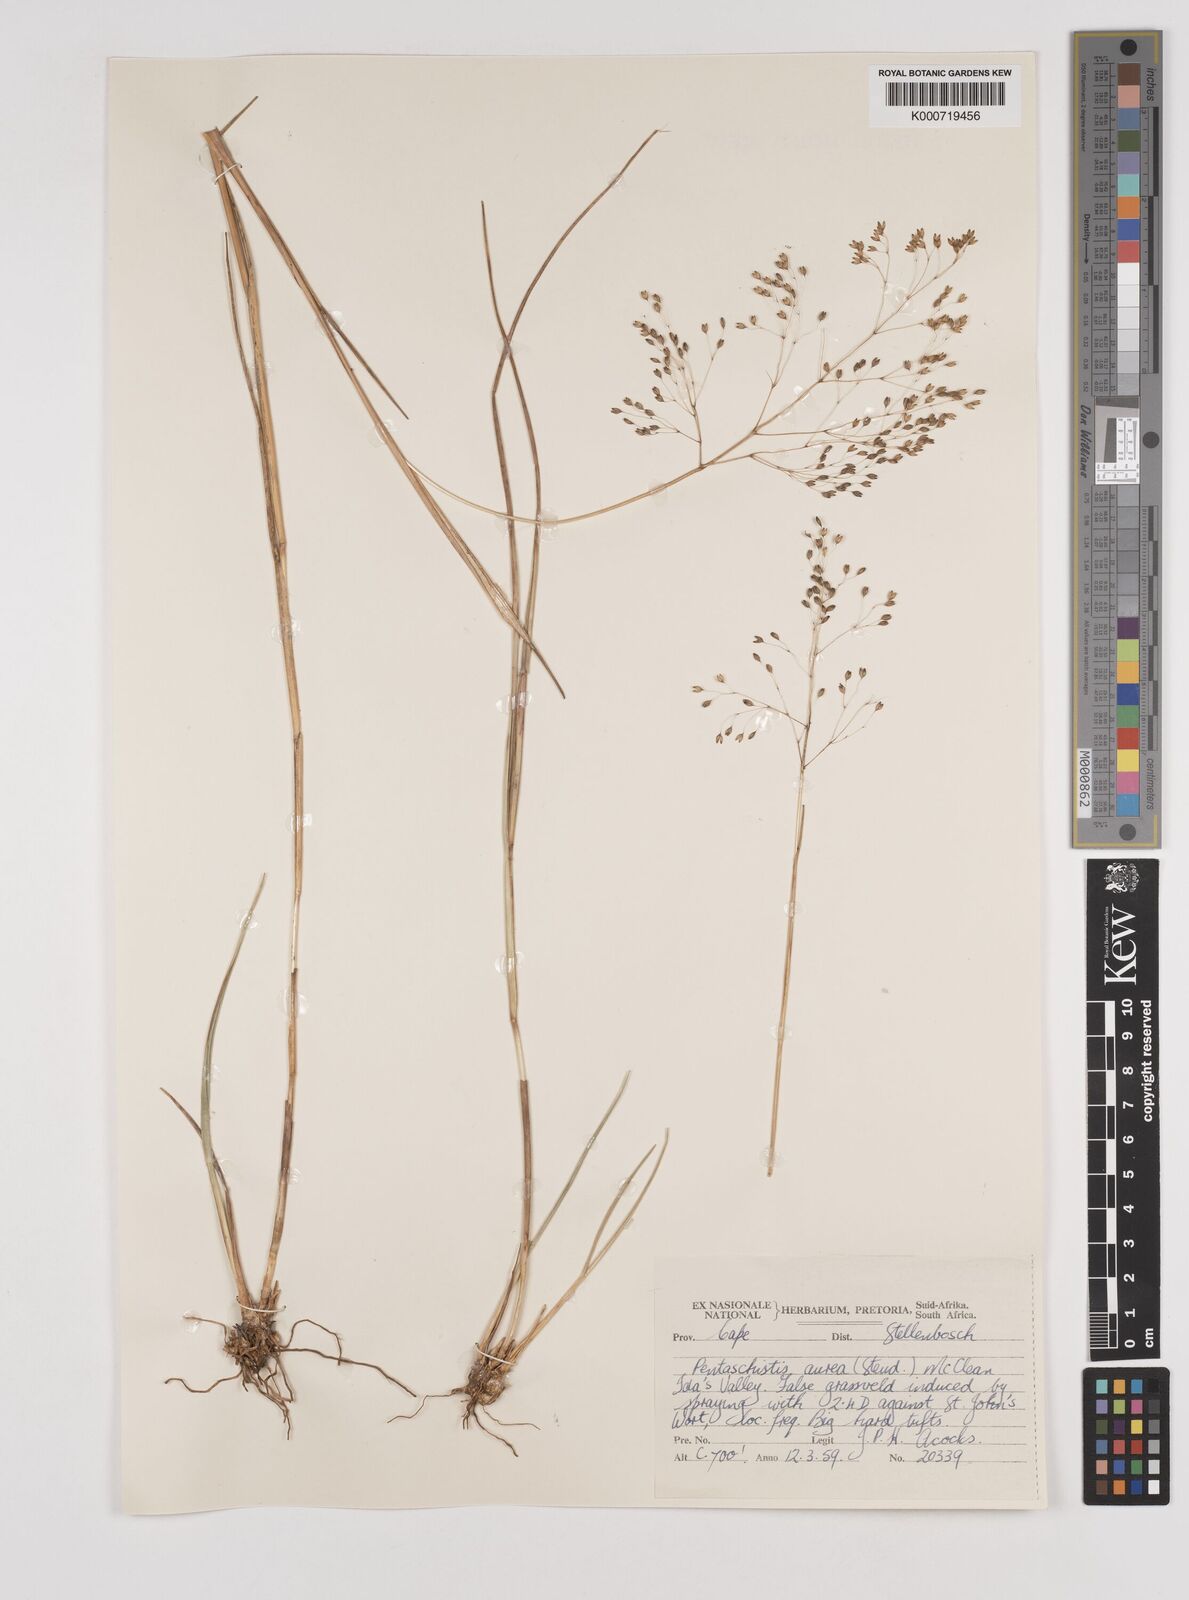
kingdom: Plantae
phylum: Tracheophyta
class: Liliopsida
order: Poales
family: Poaceae
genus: Pentameris
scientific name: Pentameris aurea
